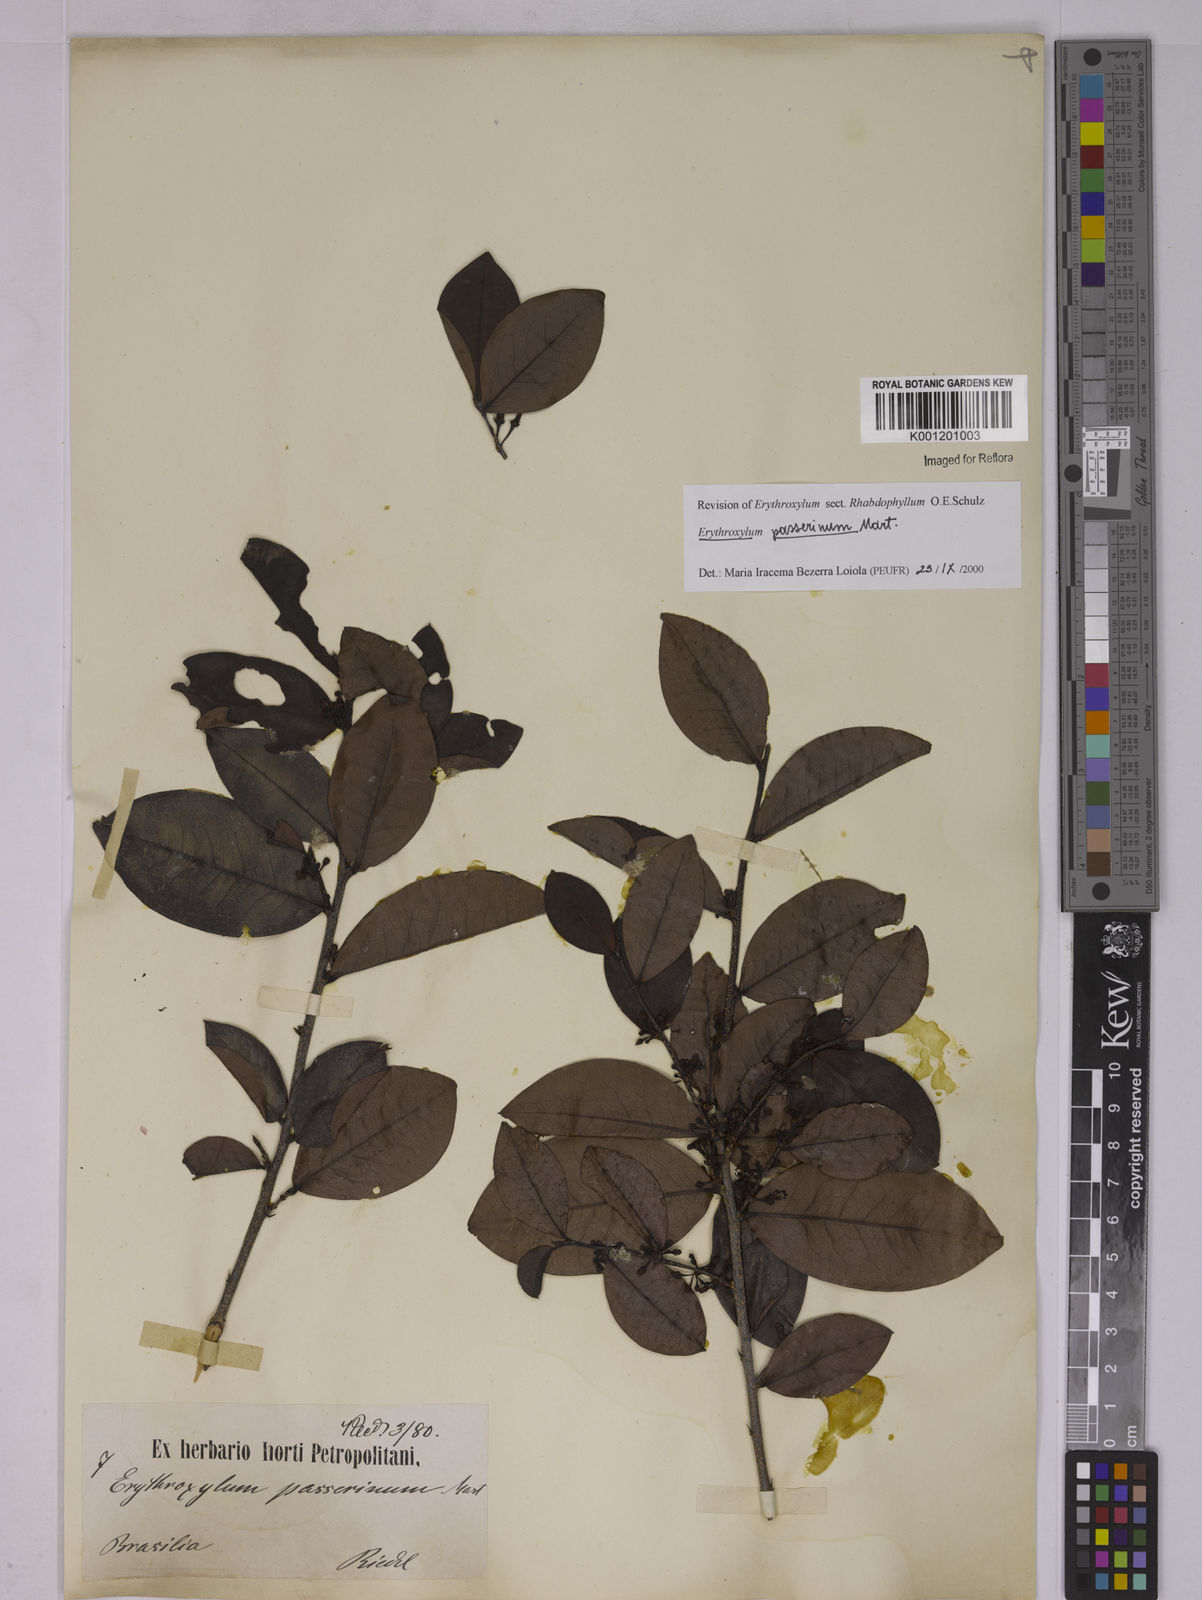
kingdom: Plantae
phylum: Tracheophyta
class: Magnoliopsida
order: Malpighiales
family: Erythroxylaceae
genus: Erythroxylum
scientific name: Erythroxylum passerinum
